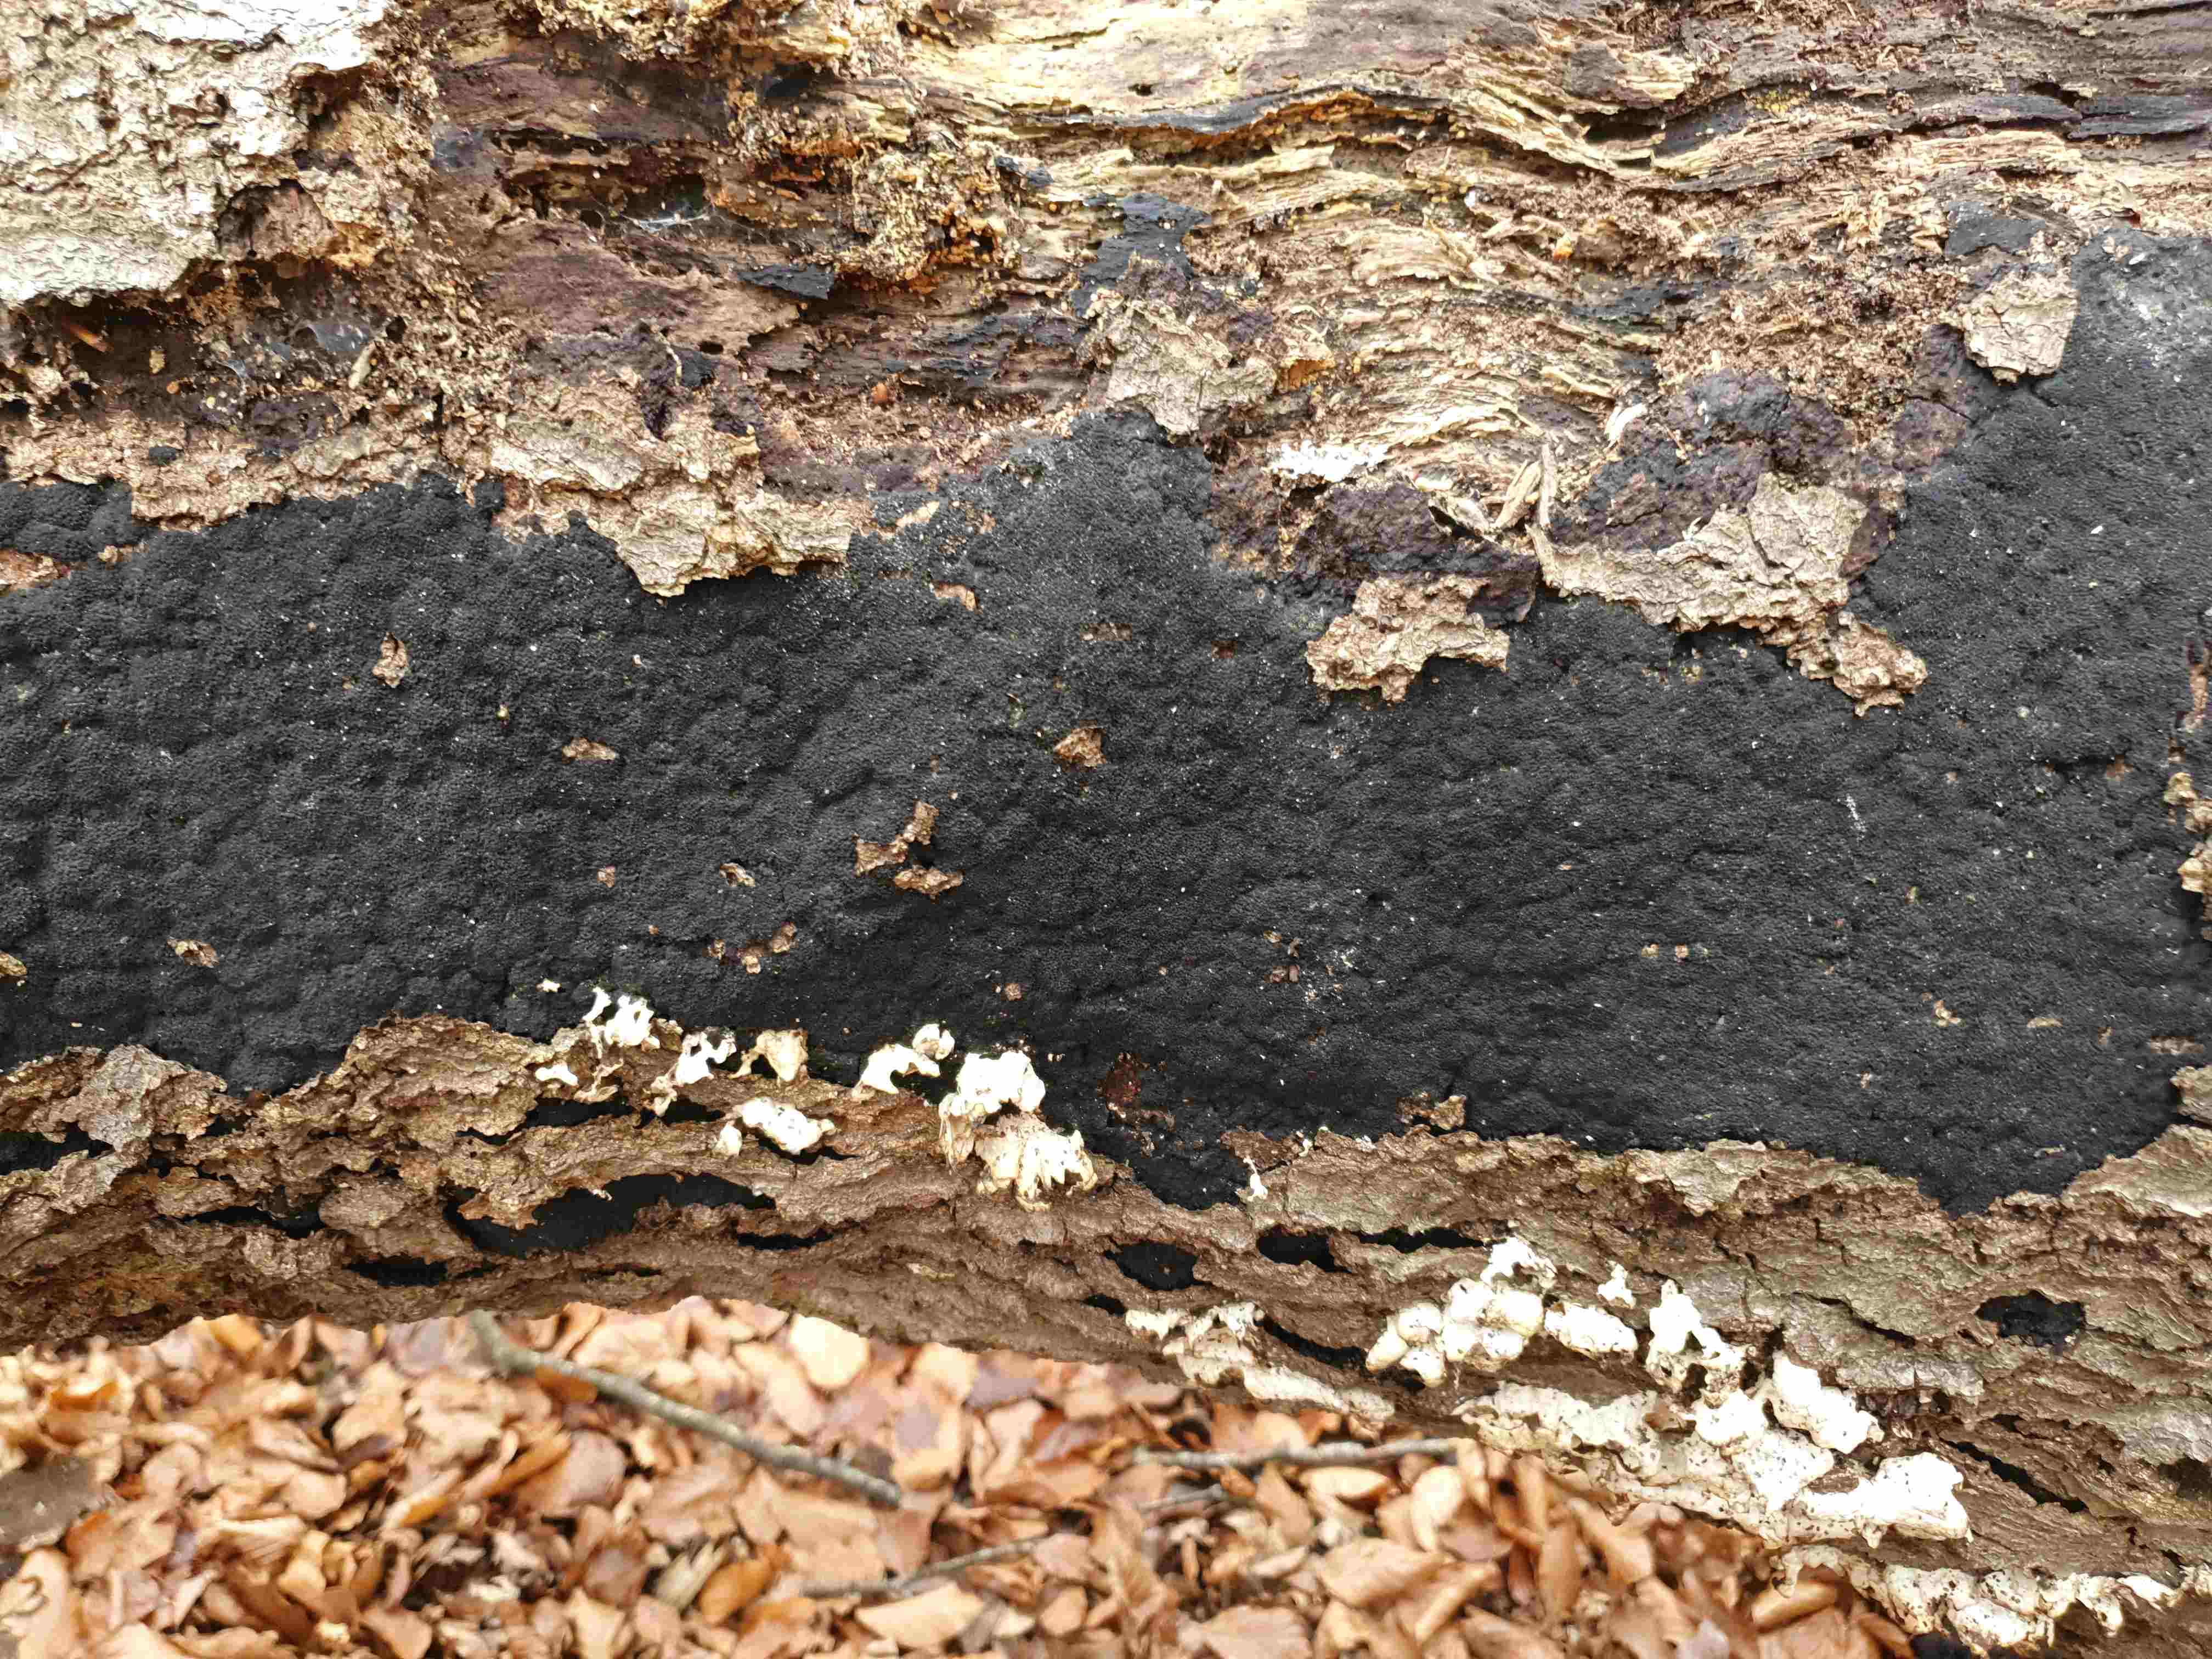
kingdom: Fungi
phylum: Ascomycota
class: Sordariomycetes
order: Xylariales
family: Diatrypaceae
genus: Eutypa
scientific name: Eutypa spinosa
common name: grov kulskorpe
